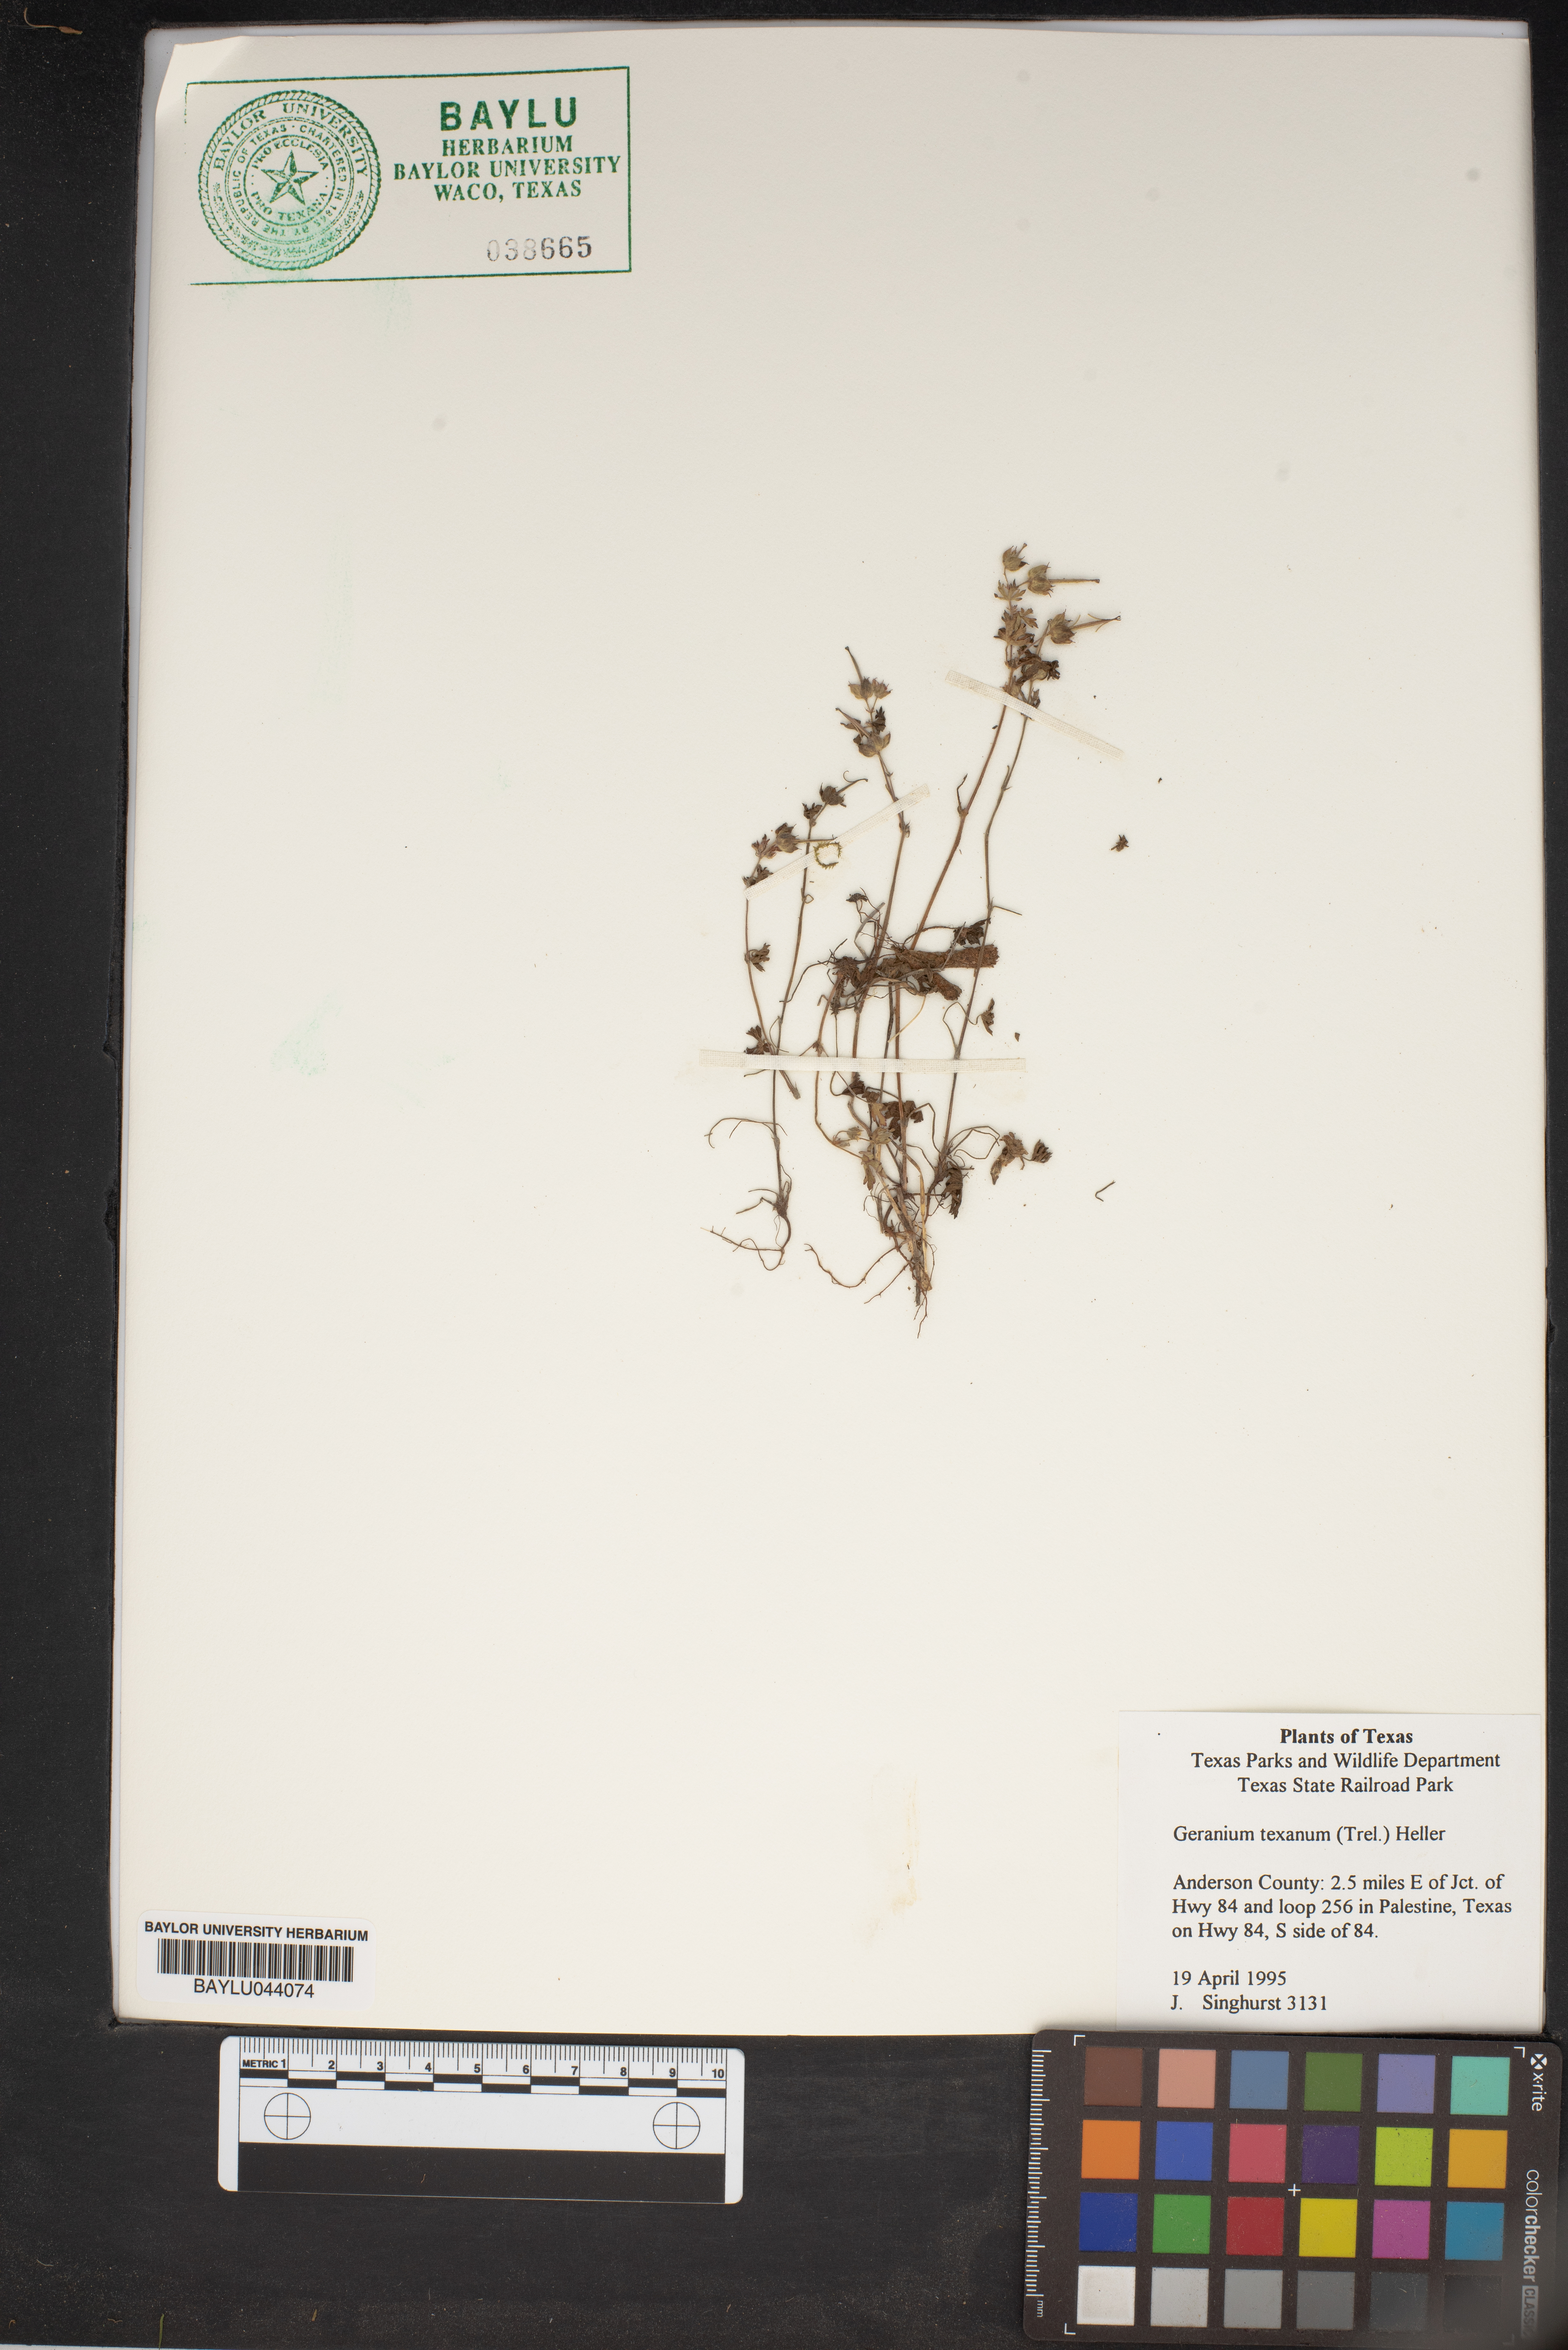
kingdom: Plantae
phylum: Tracheophyta
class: Magnoliopsida
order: Geraniales
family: Geraniaceae
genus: Geranium
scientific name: Geranium texanum
